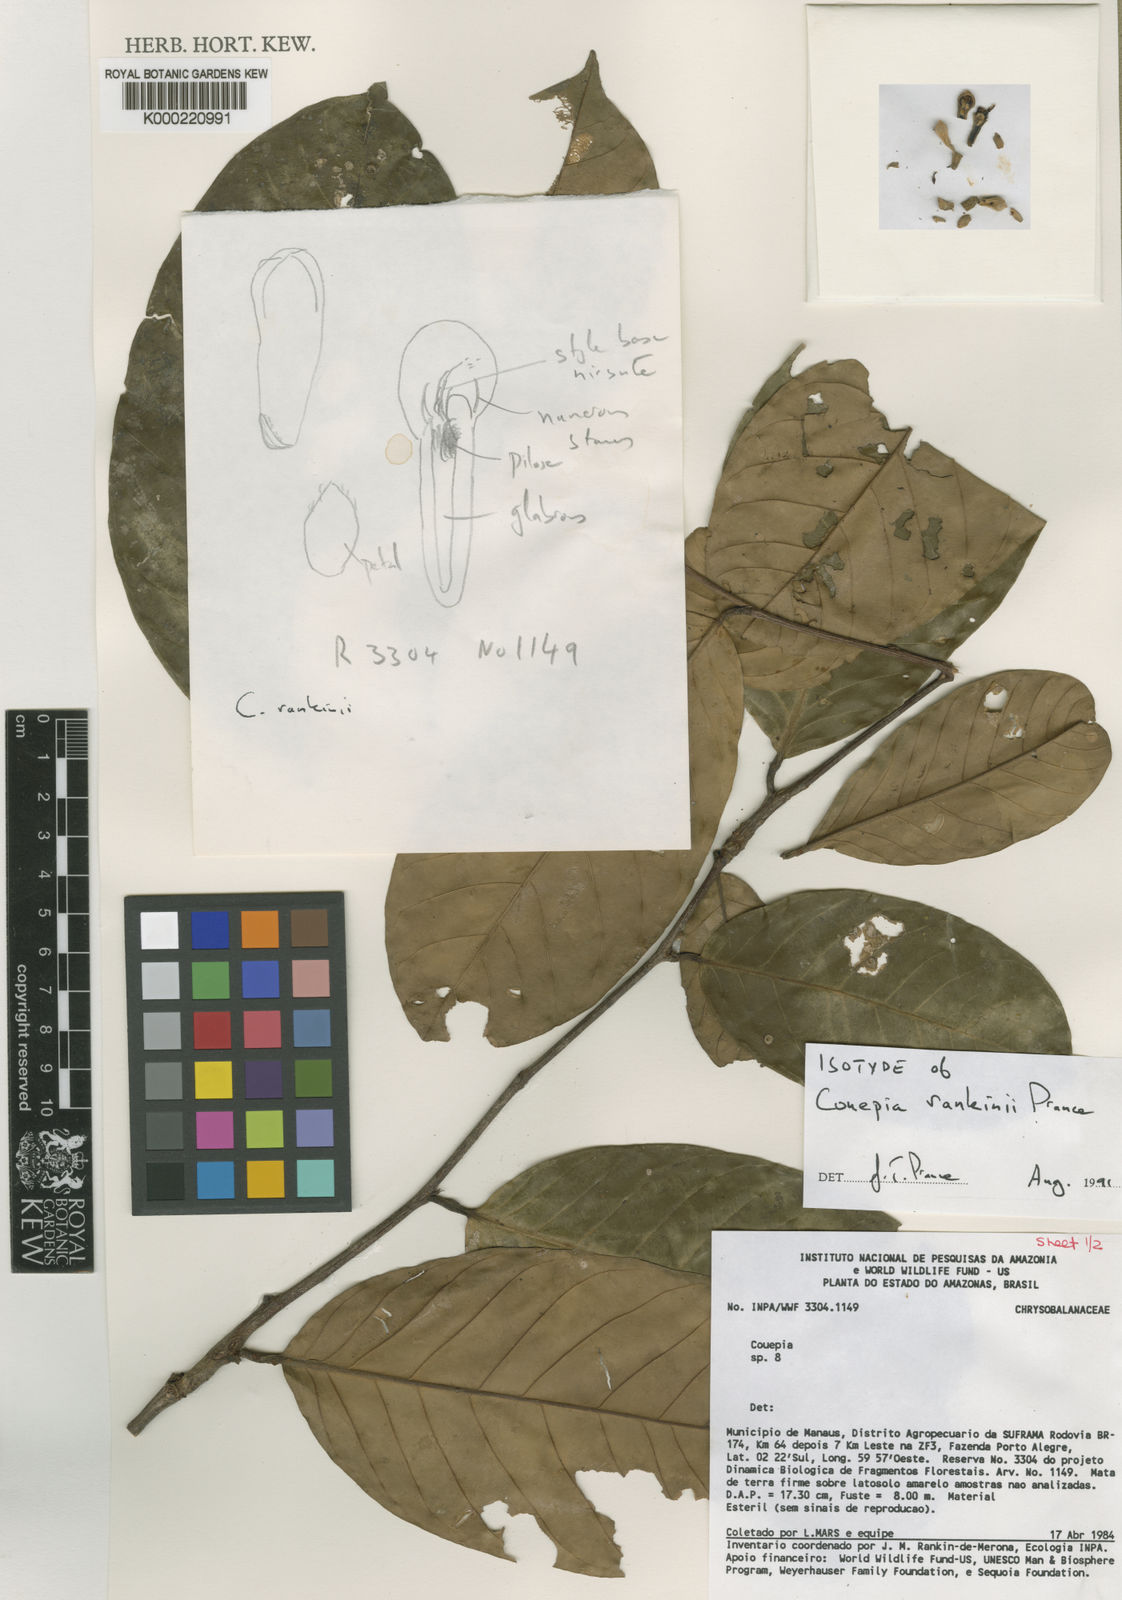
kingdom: Plantae
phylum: Tracheophyta
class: Magnoliopsida
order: Malpighiales
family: Chrysobalanaceae
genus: Couepia
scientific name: Couepia rankiniae
